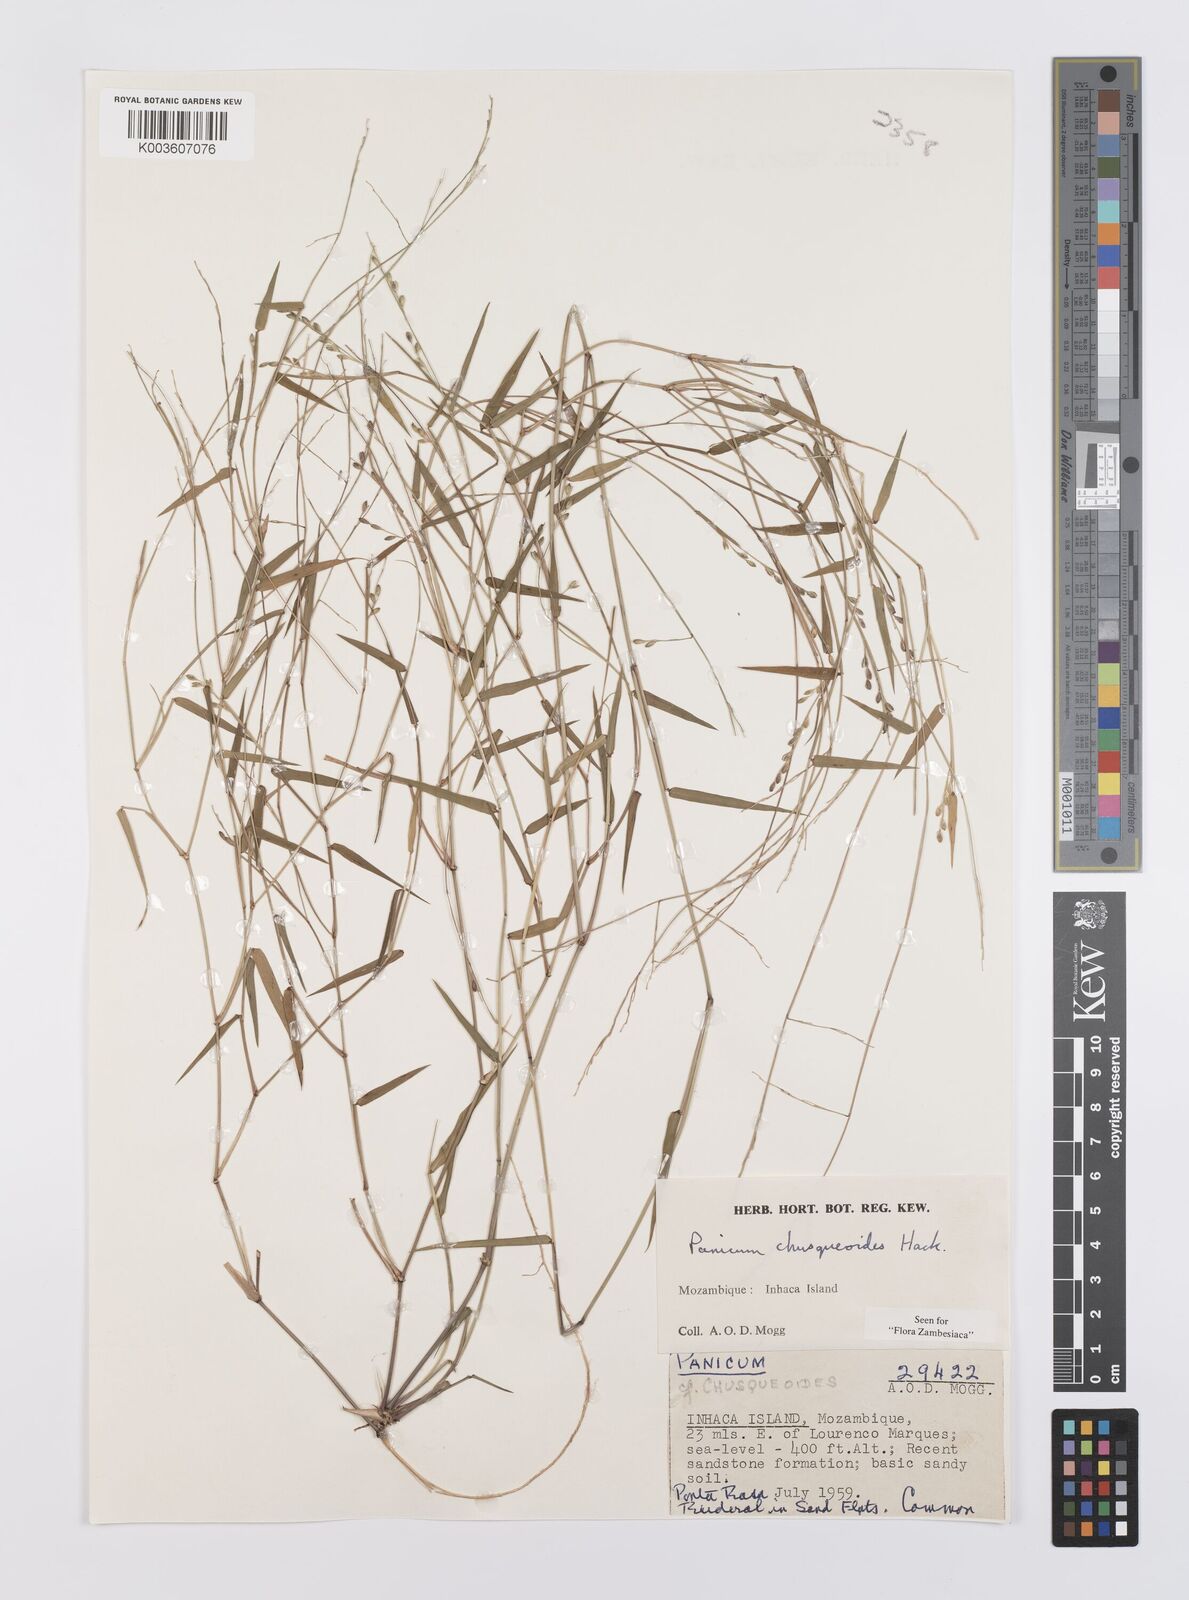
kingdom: Plantae
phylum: Tracheophyta
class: Liliopsida
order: Poales
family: Poaceae
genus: Urochloa
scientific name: Urochloa chusqueoides
